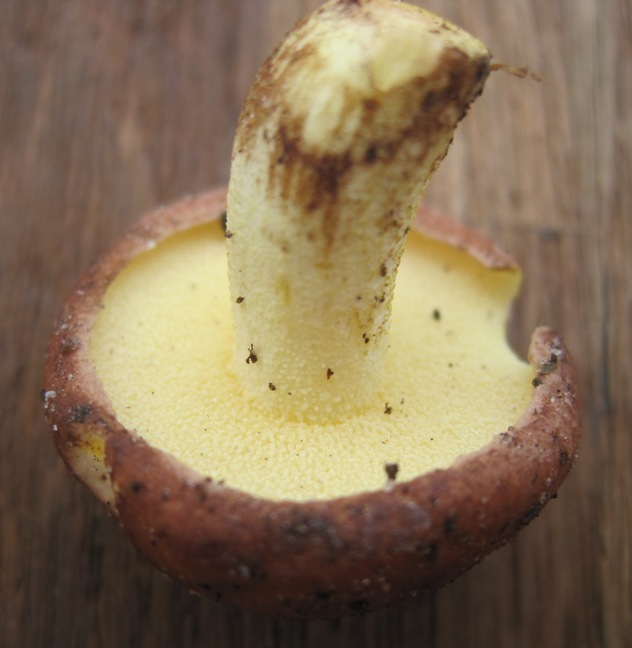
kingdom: Fungi
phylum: Basidiomycota
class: Agaricomycetes
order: Boletales
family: Suillaceae
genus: Suillus
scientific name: Suillus granulatus
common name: kornet slimrørhat
